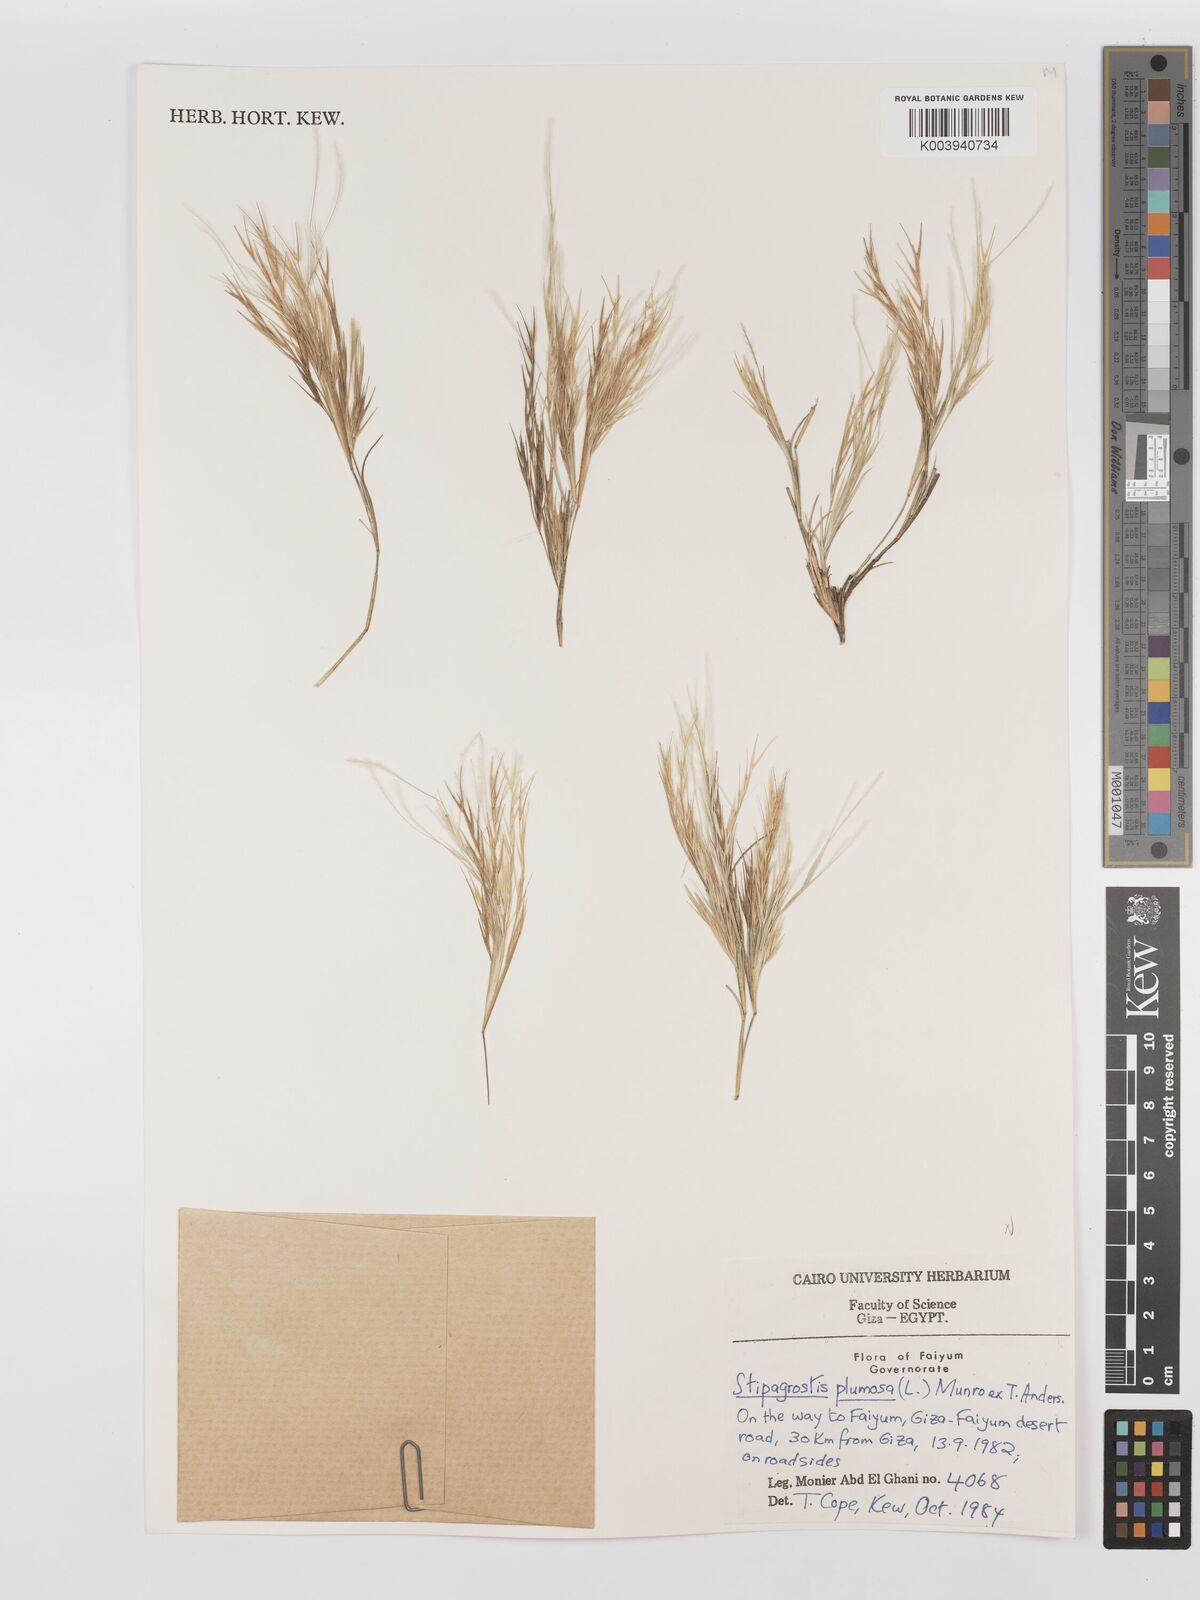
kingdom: Plantae
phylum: Tracheophyta
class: Liliopsida
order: Poales
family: Poaceae
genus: Stipagrostis
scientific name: Stipagrostis plumosa
